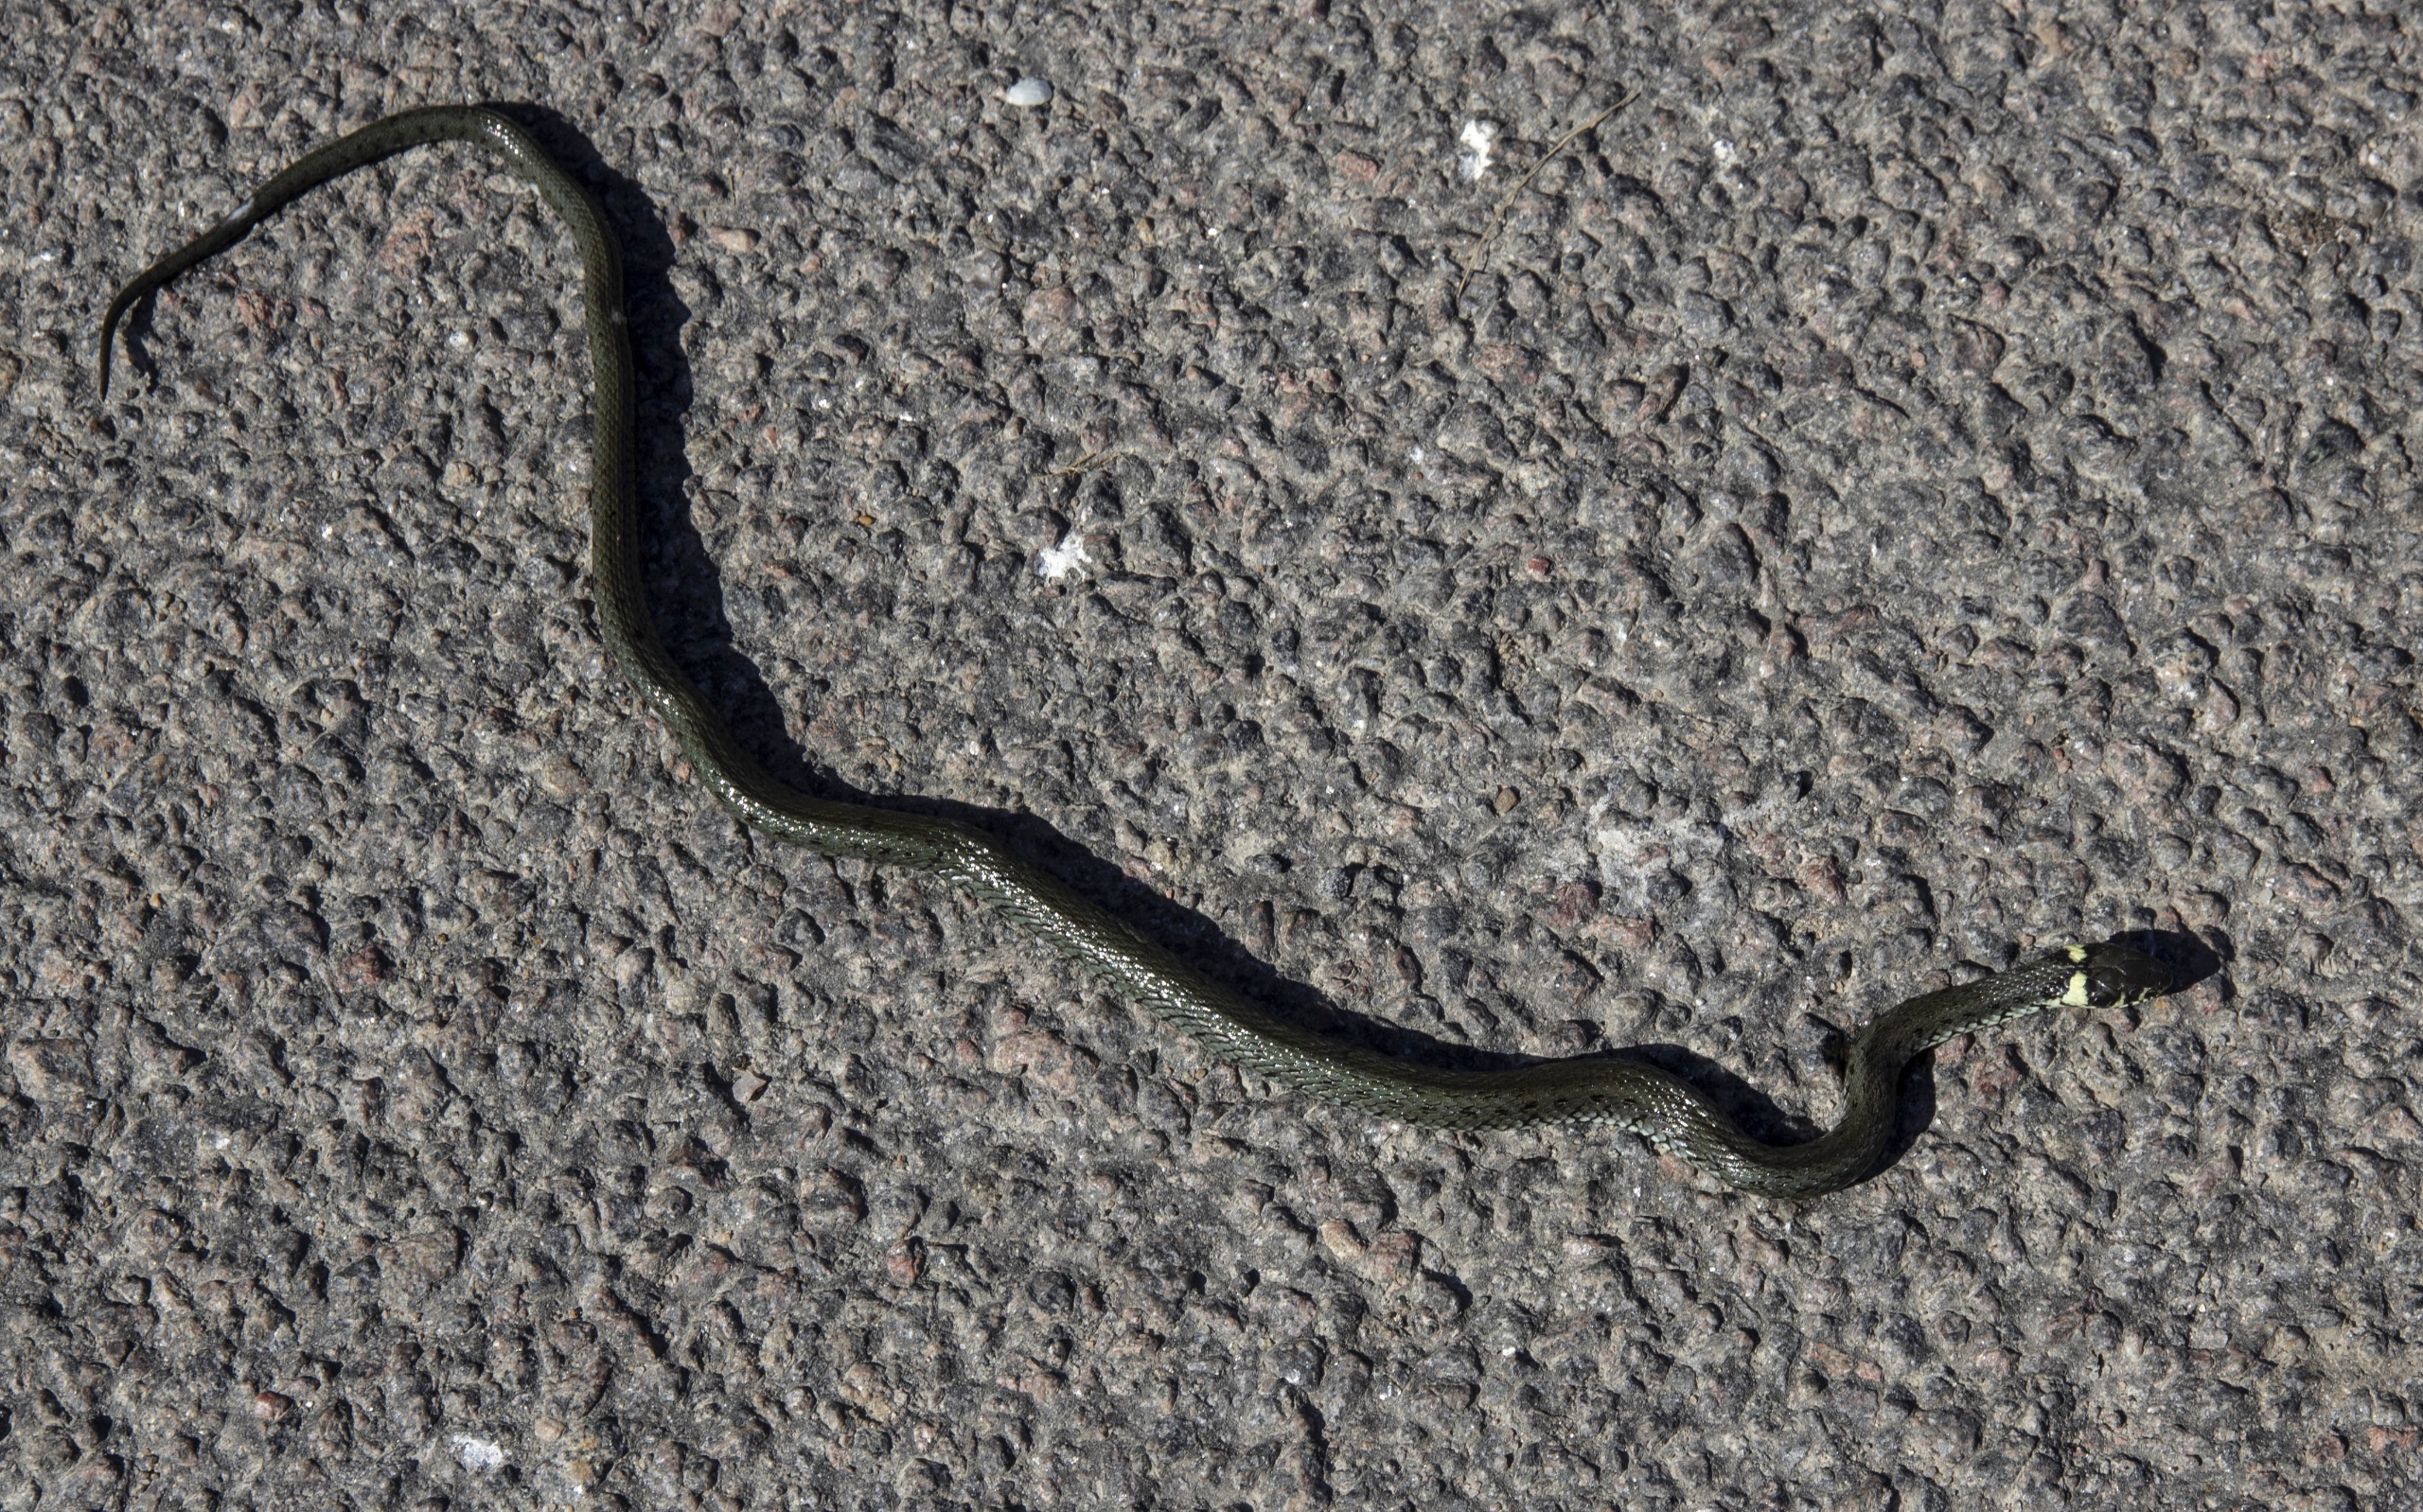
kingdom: Animalia
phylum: Chordata
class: Squamata
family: Colubridae
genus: Natrix
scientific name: Natrix natrix
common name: Snog
